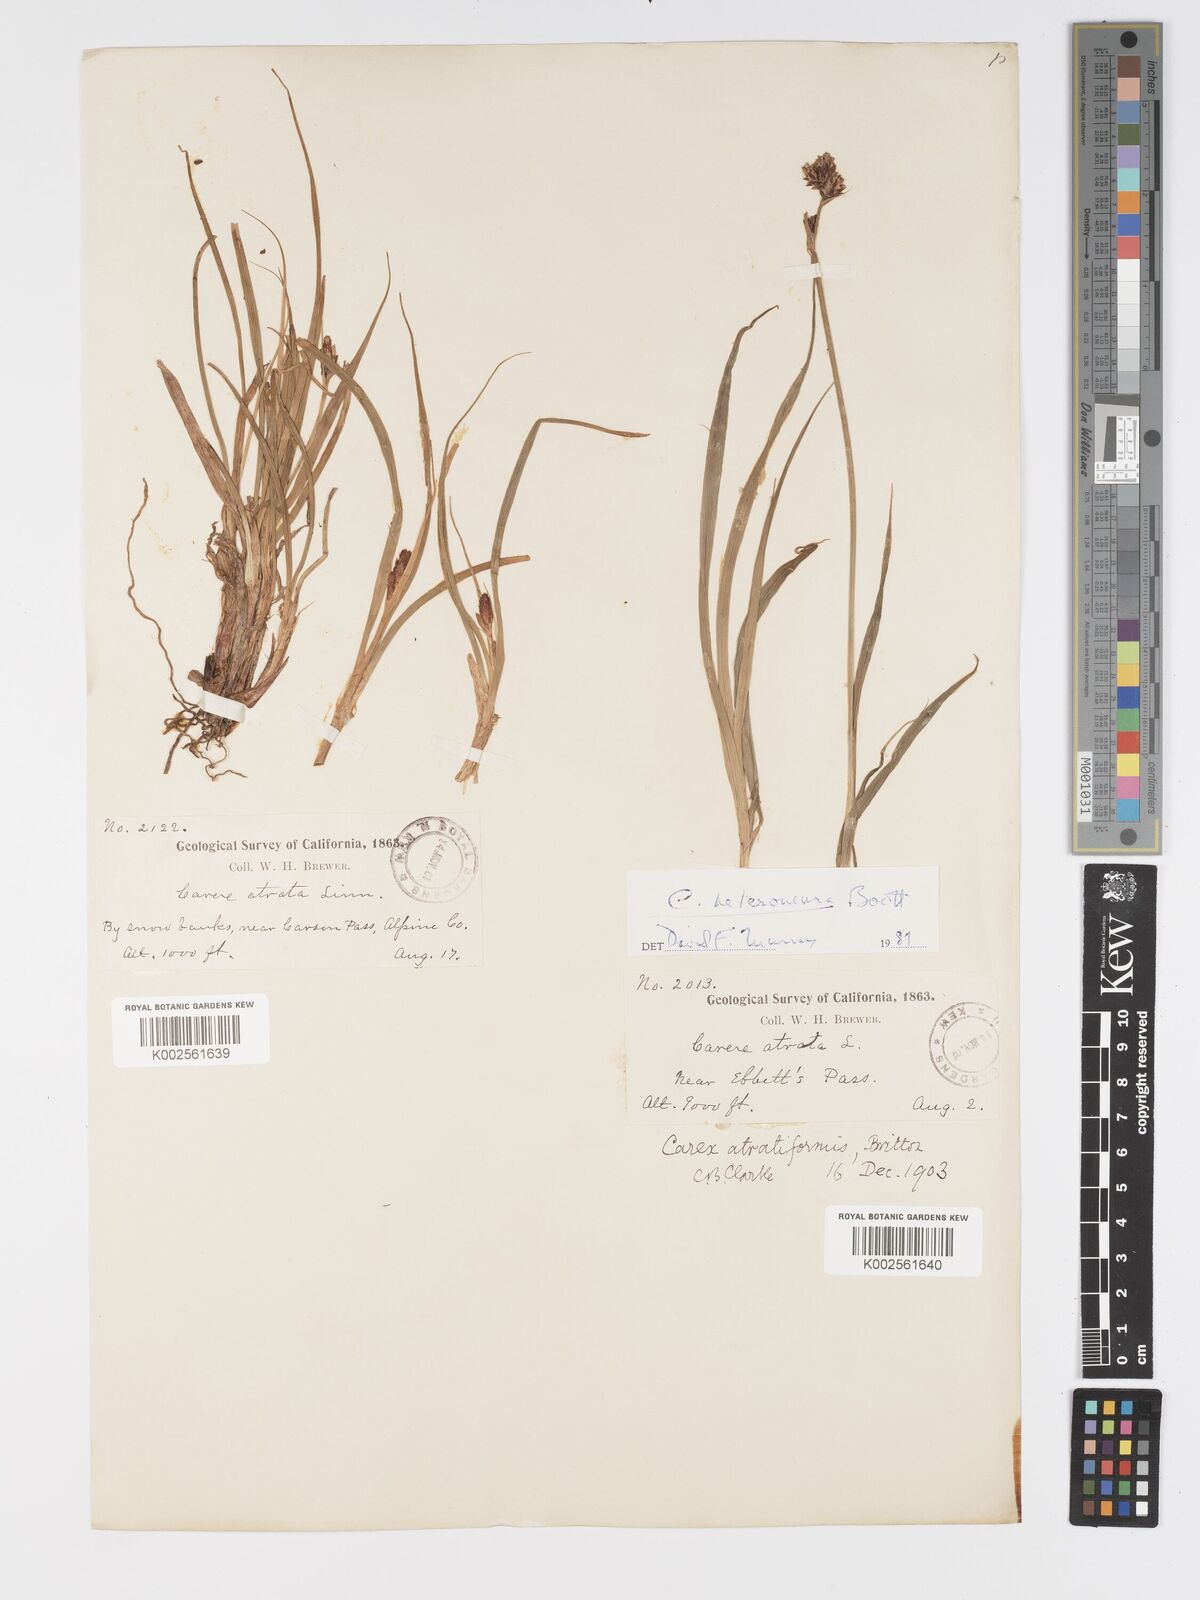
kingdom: Plantae
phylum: Tracheophyta
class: Liliopsida
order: Poales
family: Cyperaceae
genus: Carex
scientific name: Carex heteroneura
